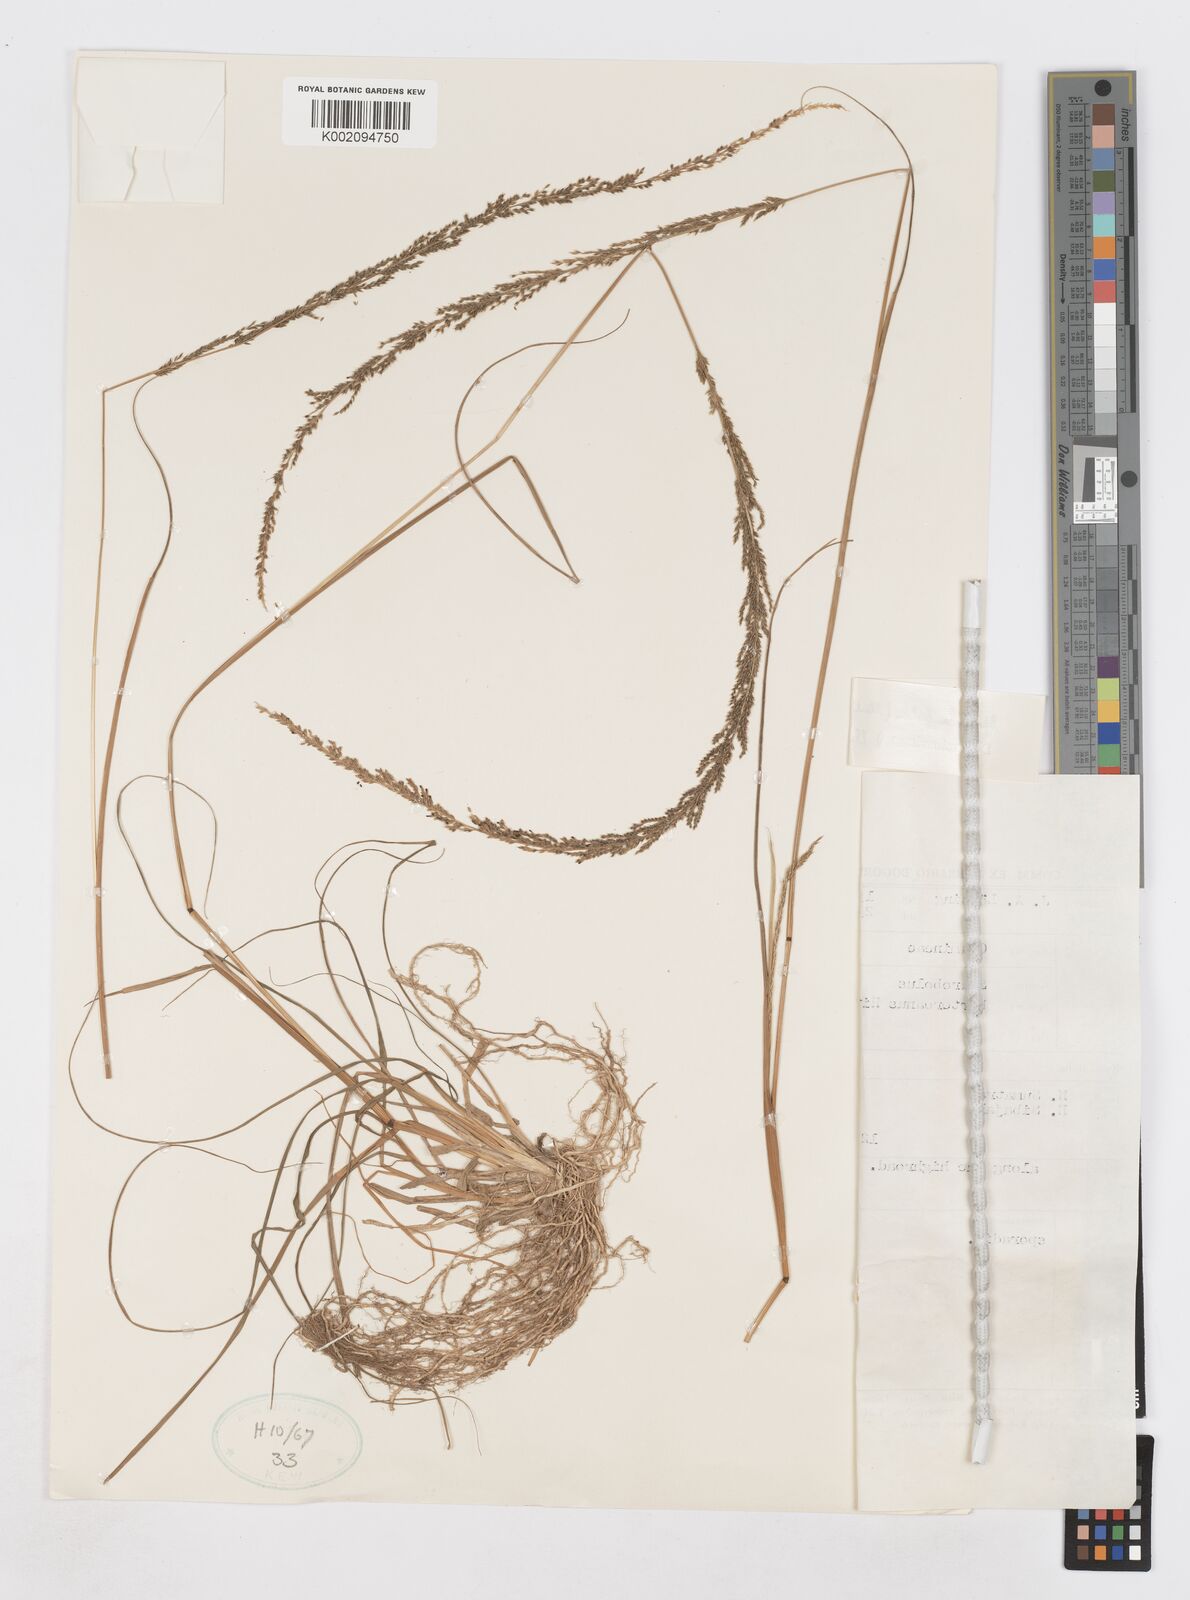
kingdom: Plantae
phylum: Tracheophyta
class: Liliopsida
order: Poales
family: Poaceae
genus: Sporobolus
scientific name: Sporobolus fertilis
